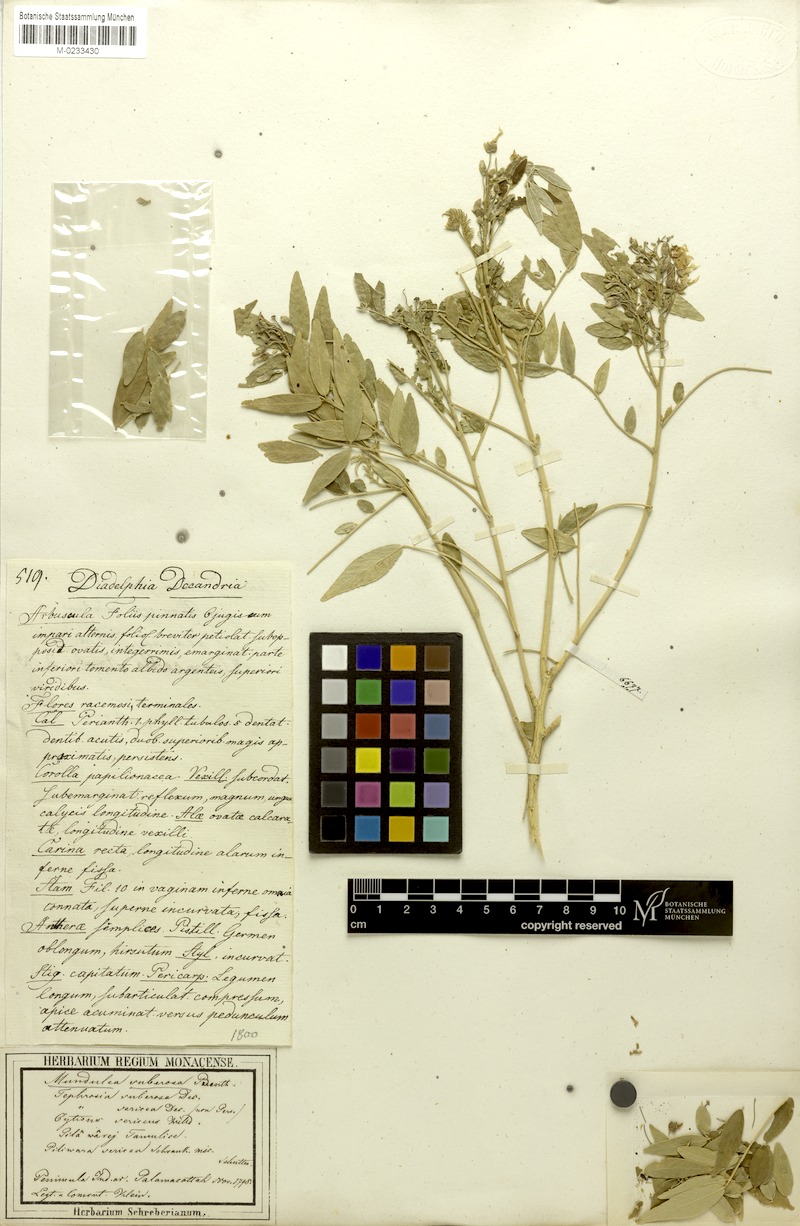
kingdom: Plantae
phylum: Tracheophyta
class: Magnoliopsida
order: Fabales
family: Fabaceae
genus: Mundulea
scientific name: Mundulea sericea
